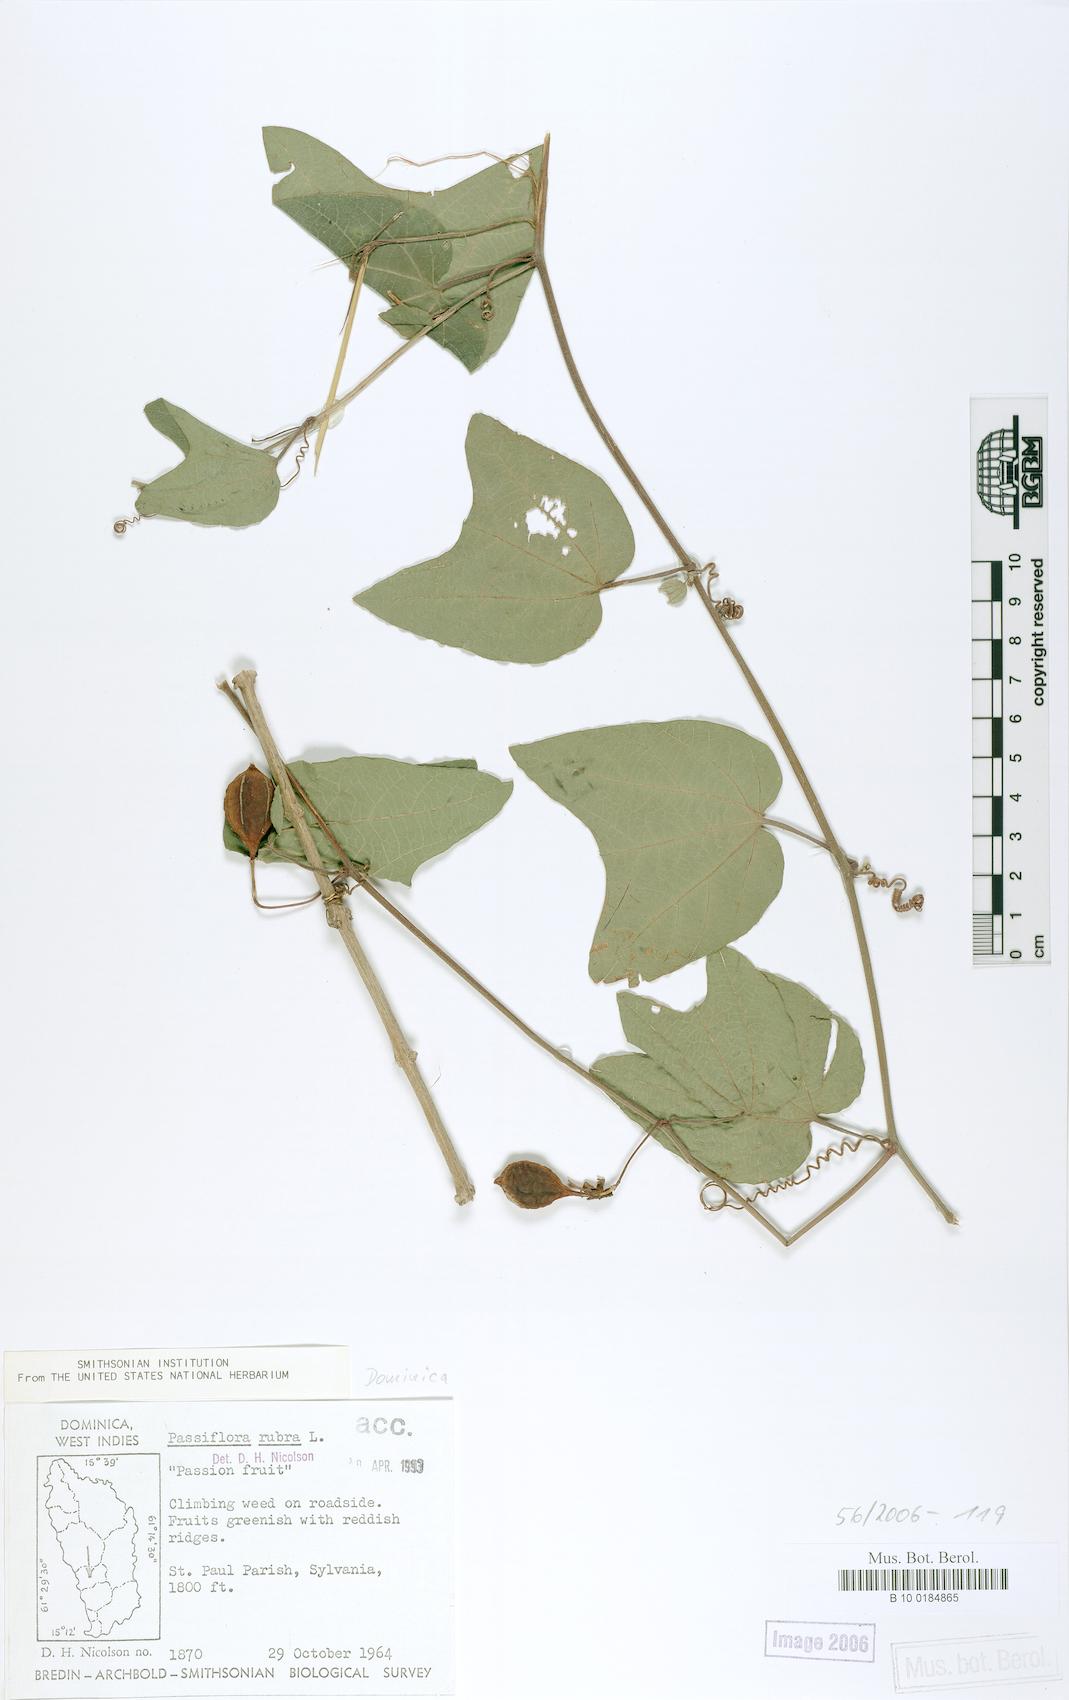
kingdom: Plantae
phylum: Tracheophyta
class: Magnoliopsida
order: Malpighiales
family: Passifloraceae
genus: Passiflora
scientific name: Passiflora rubra
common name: Snakeberry vine
